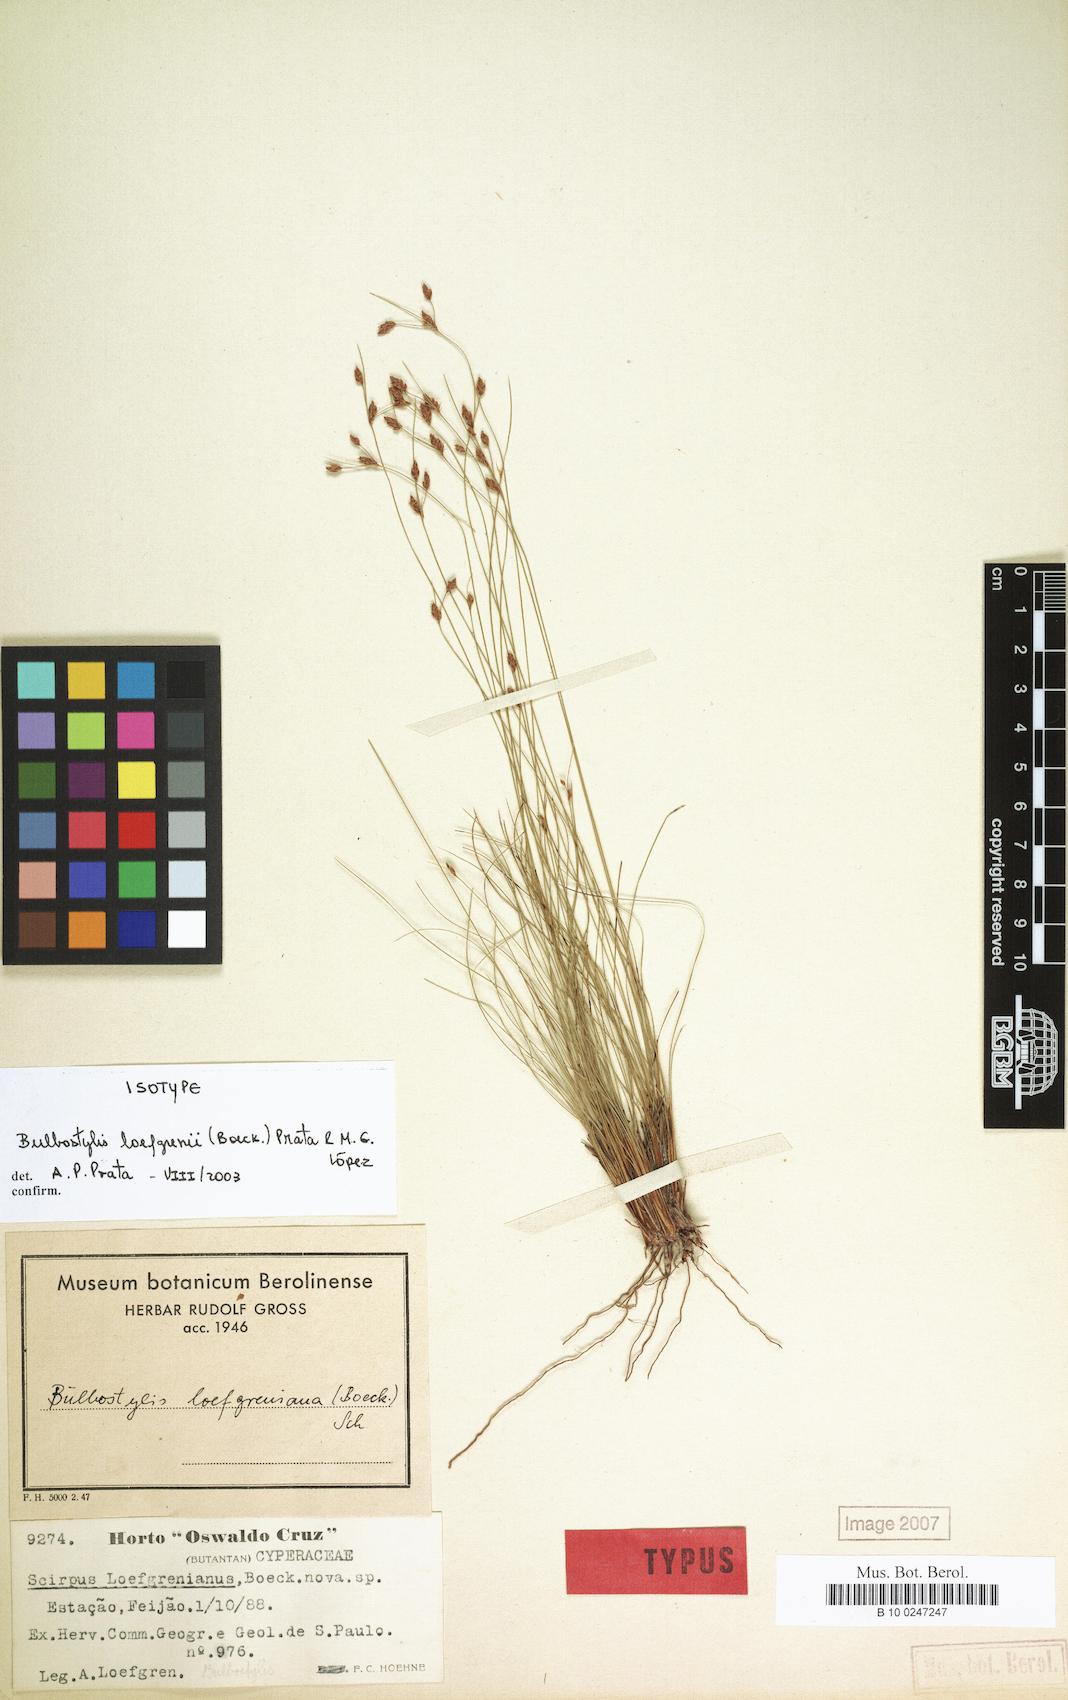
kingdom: Plantae
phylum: Tracheophyta
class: Liliopsida
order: Poales
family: Cyperaceae
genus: Bulbostylis
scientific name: Bulbostylis loefgrenii
